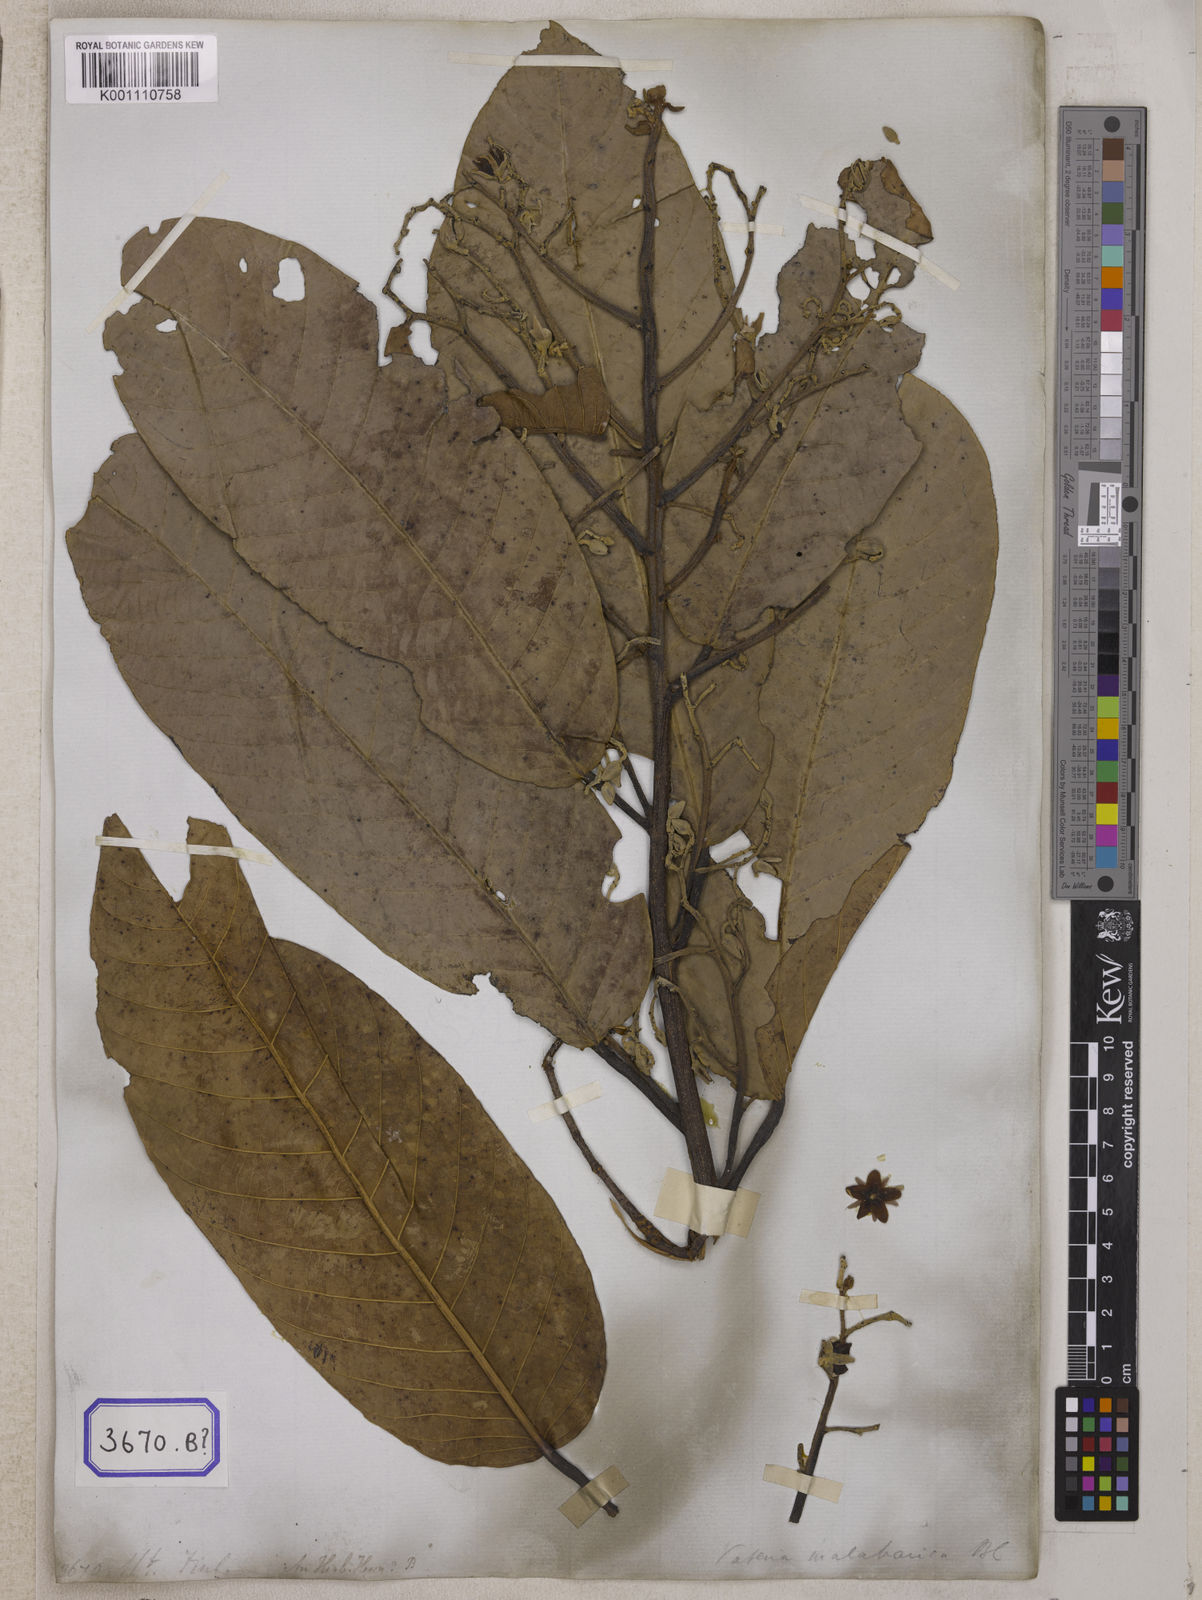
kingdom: Plantae
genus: Valeria
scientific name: Valeria
